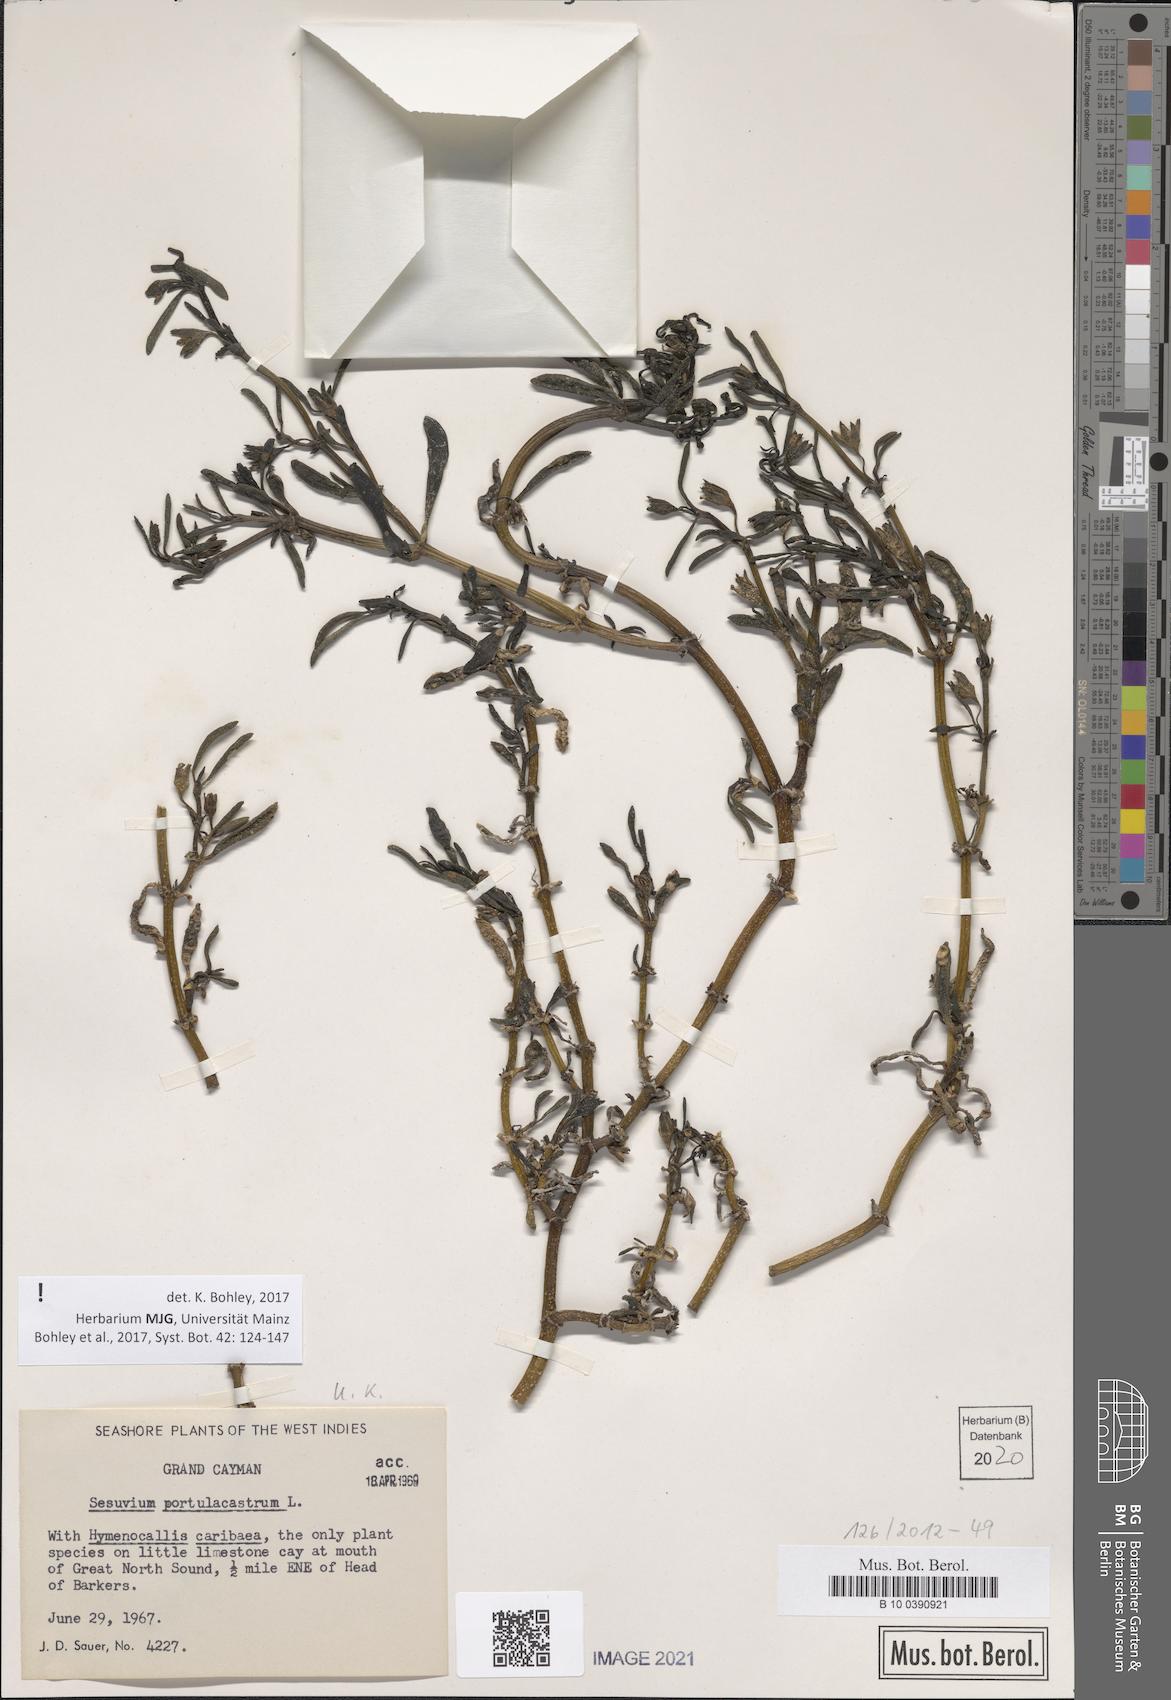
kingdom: Plantae
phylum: Tracheophyta
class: Magnoliopsida
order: Caryophyllales
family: Aizoaceae
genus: Sesuvium
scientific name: Sesuvium portulacastrum
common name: Sea-purslane
